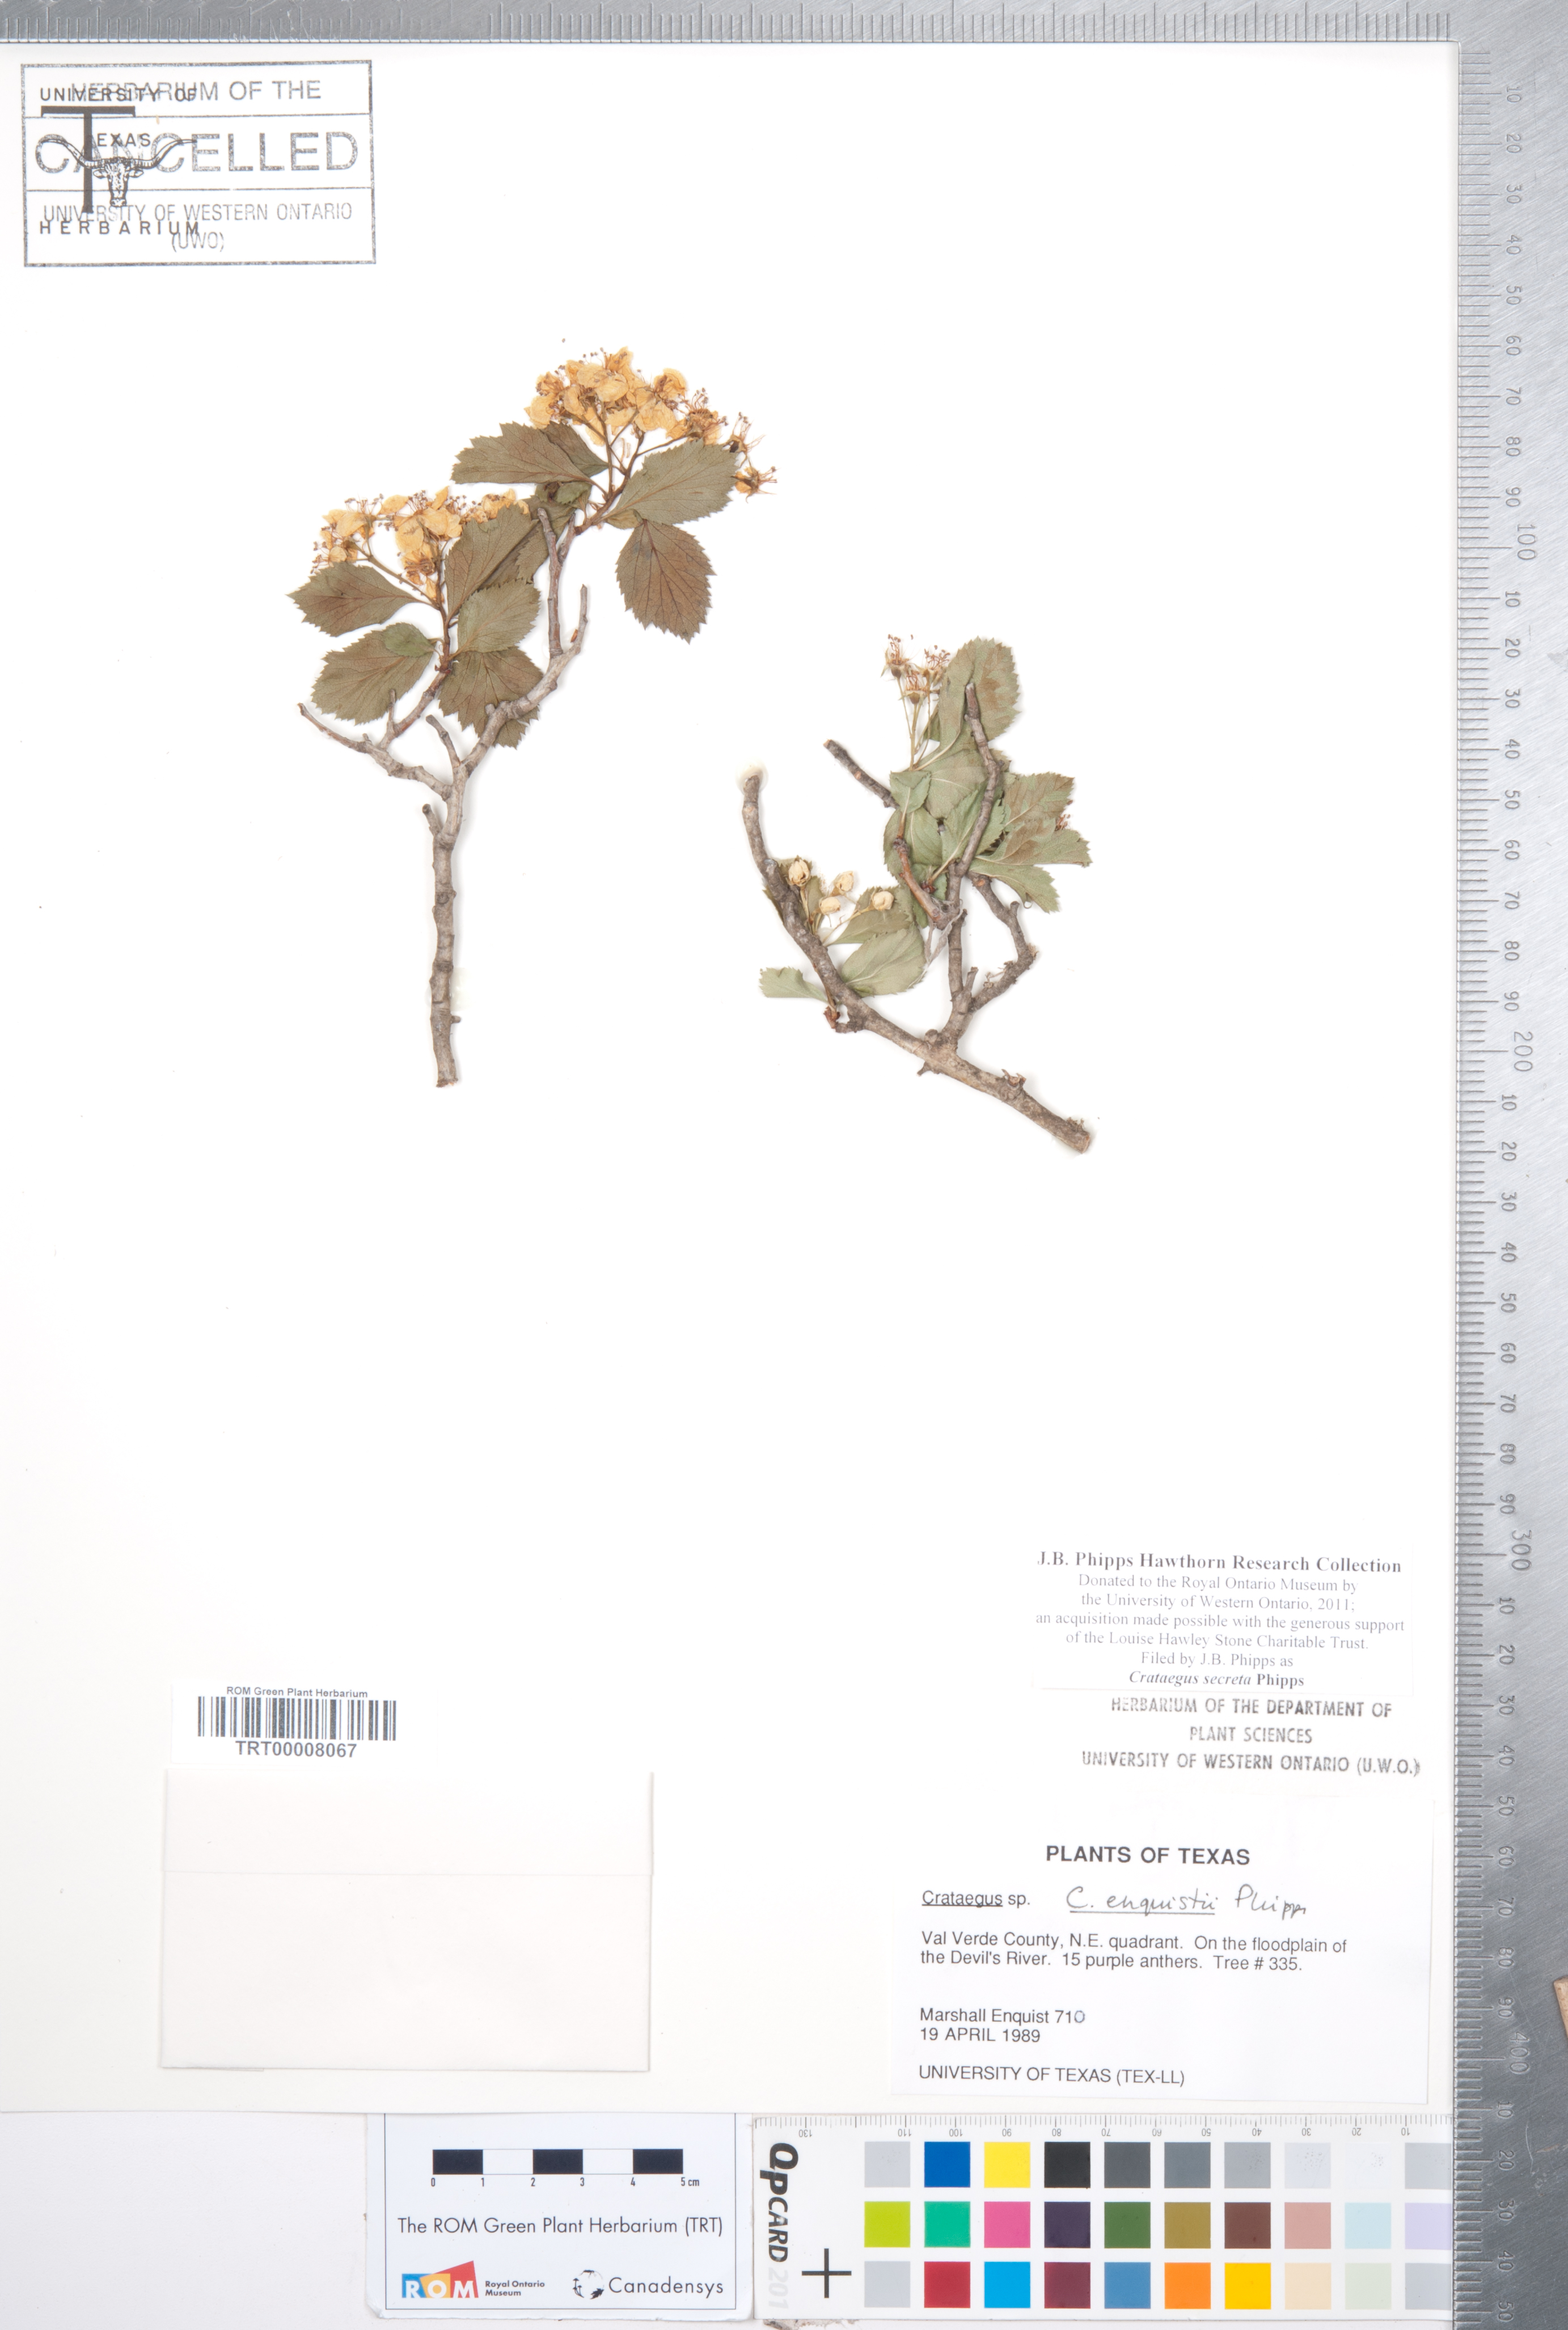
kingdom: Plantae
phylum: Tracheophyta
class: Magnoliopsida
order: Rosales
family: Rosaceae
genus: Crataegus
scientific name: Crataegus turnerorum
